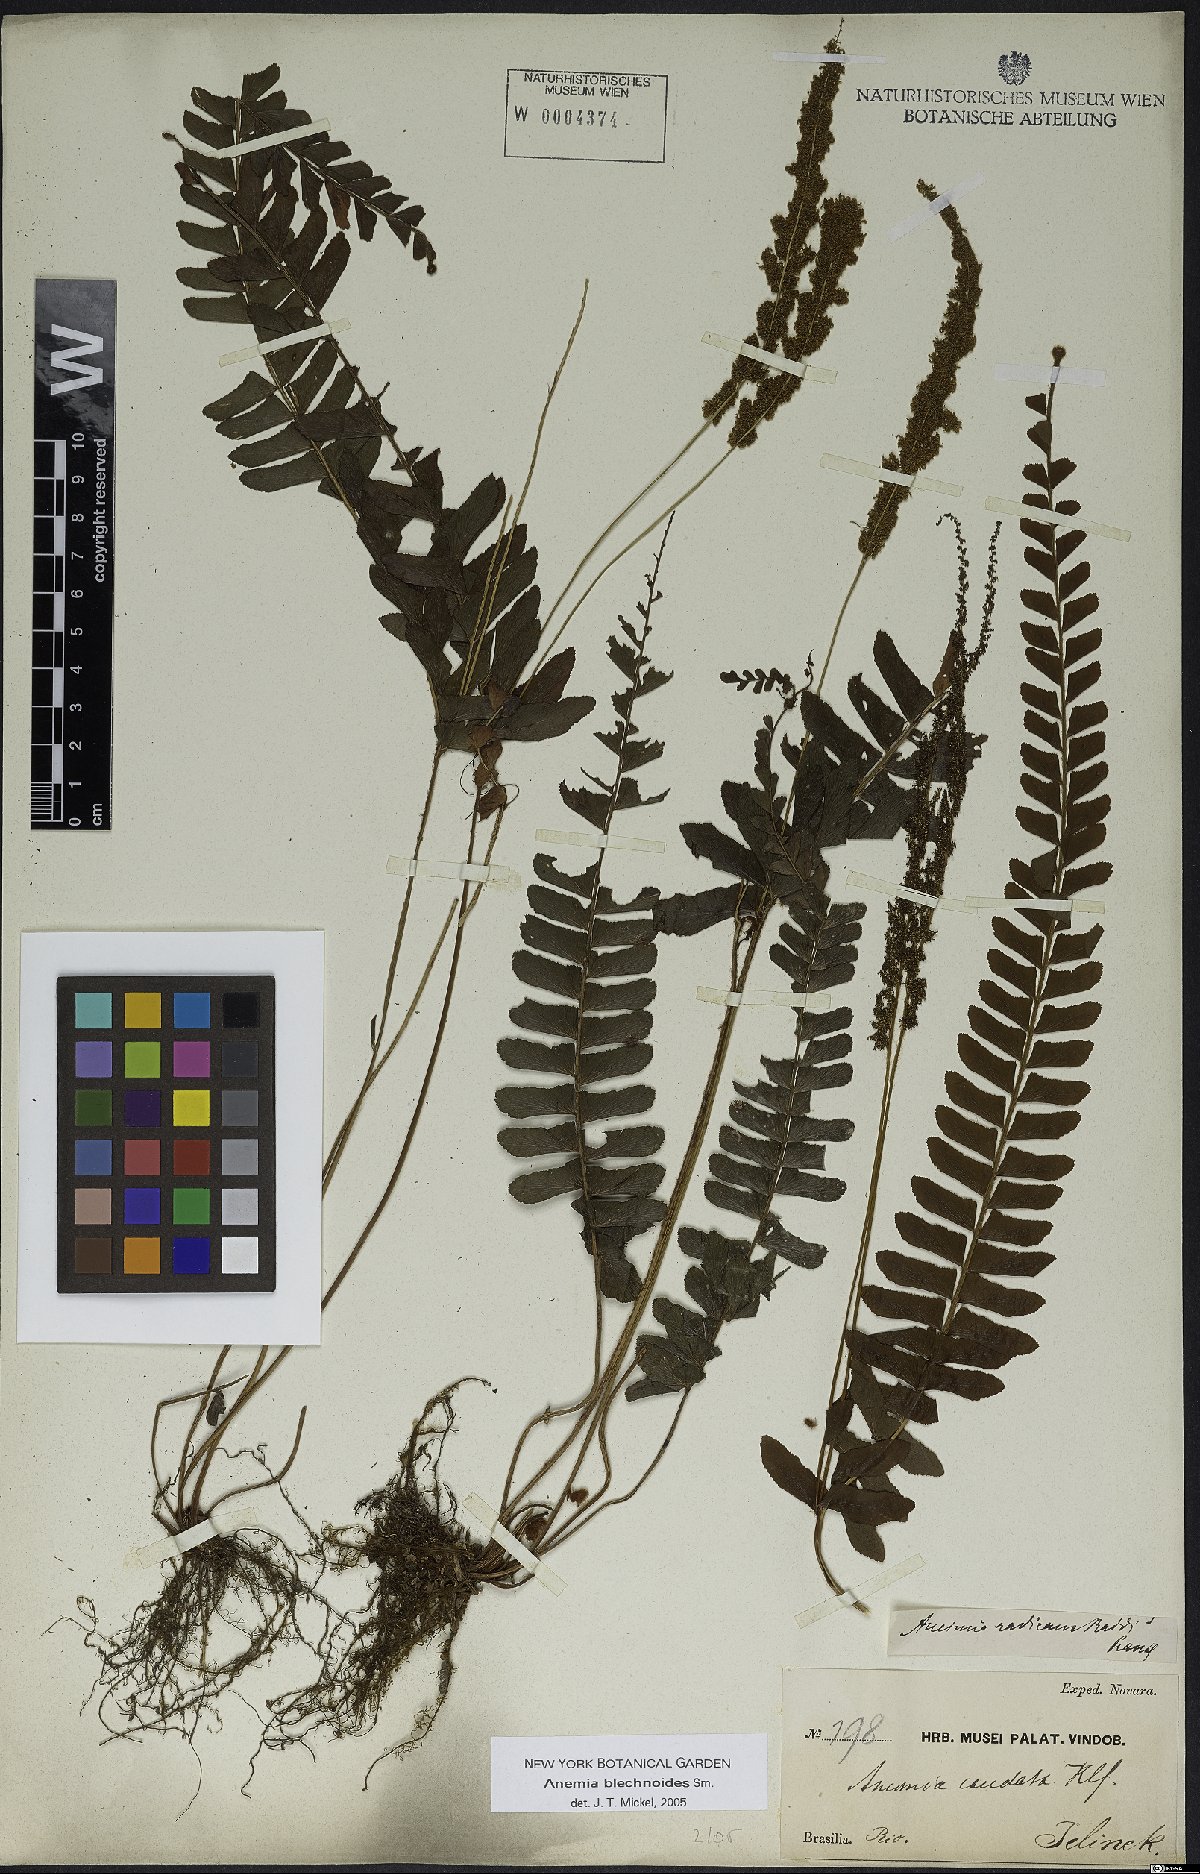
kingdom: Plantae
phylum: Tracheophyta
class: Polypodiopsida
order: Schizaeales
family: Anemiaceae
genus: Anemia
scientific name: Anemia spicantoides
